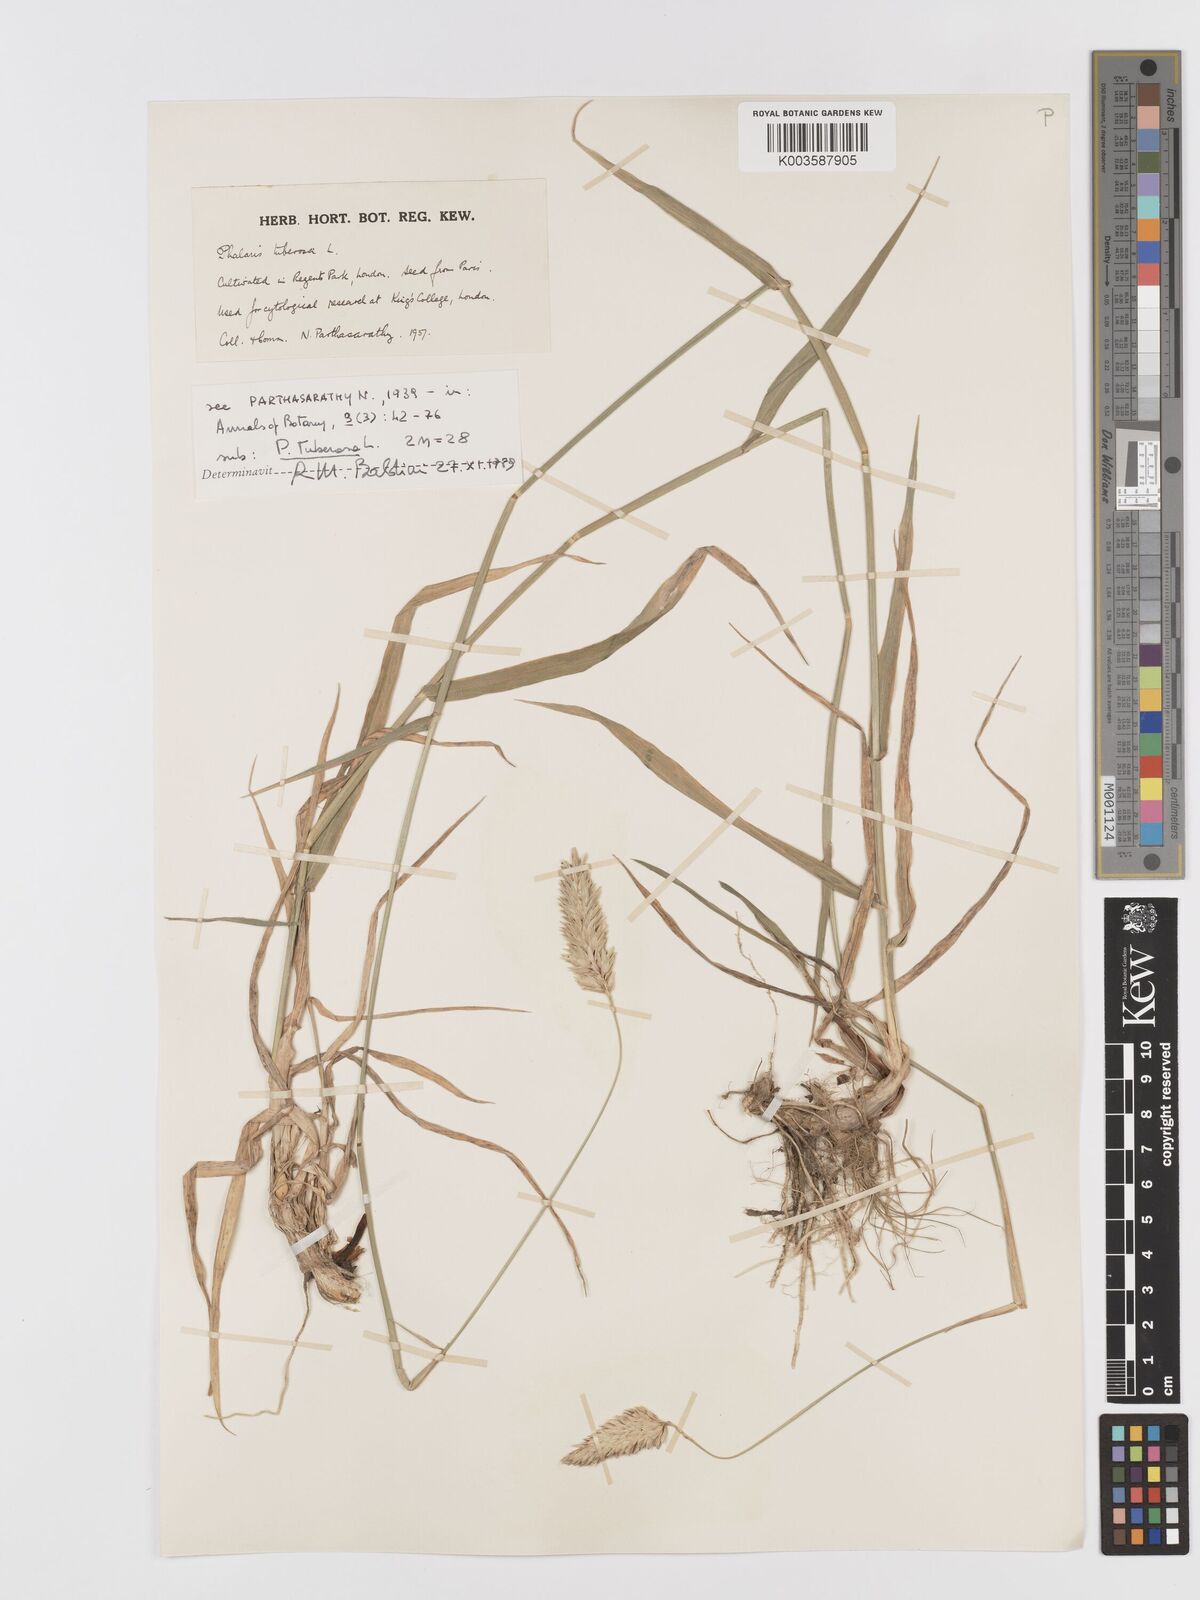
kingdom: Plantae
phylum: Tracheophyta
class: Liliopsida
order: Poales
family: Poaceae
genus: Phalaris
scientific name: Phalaris
